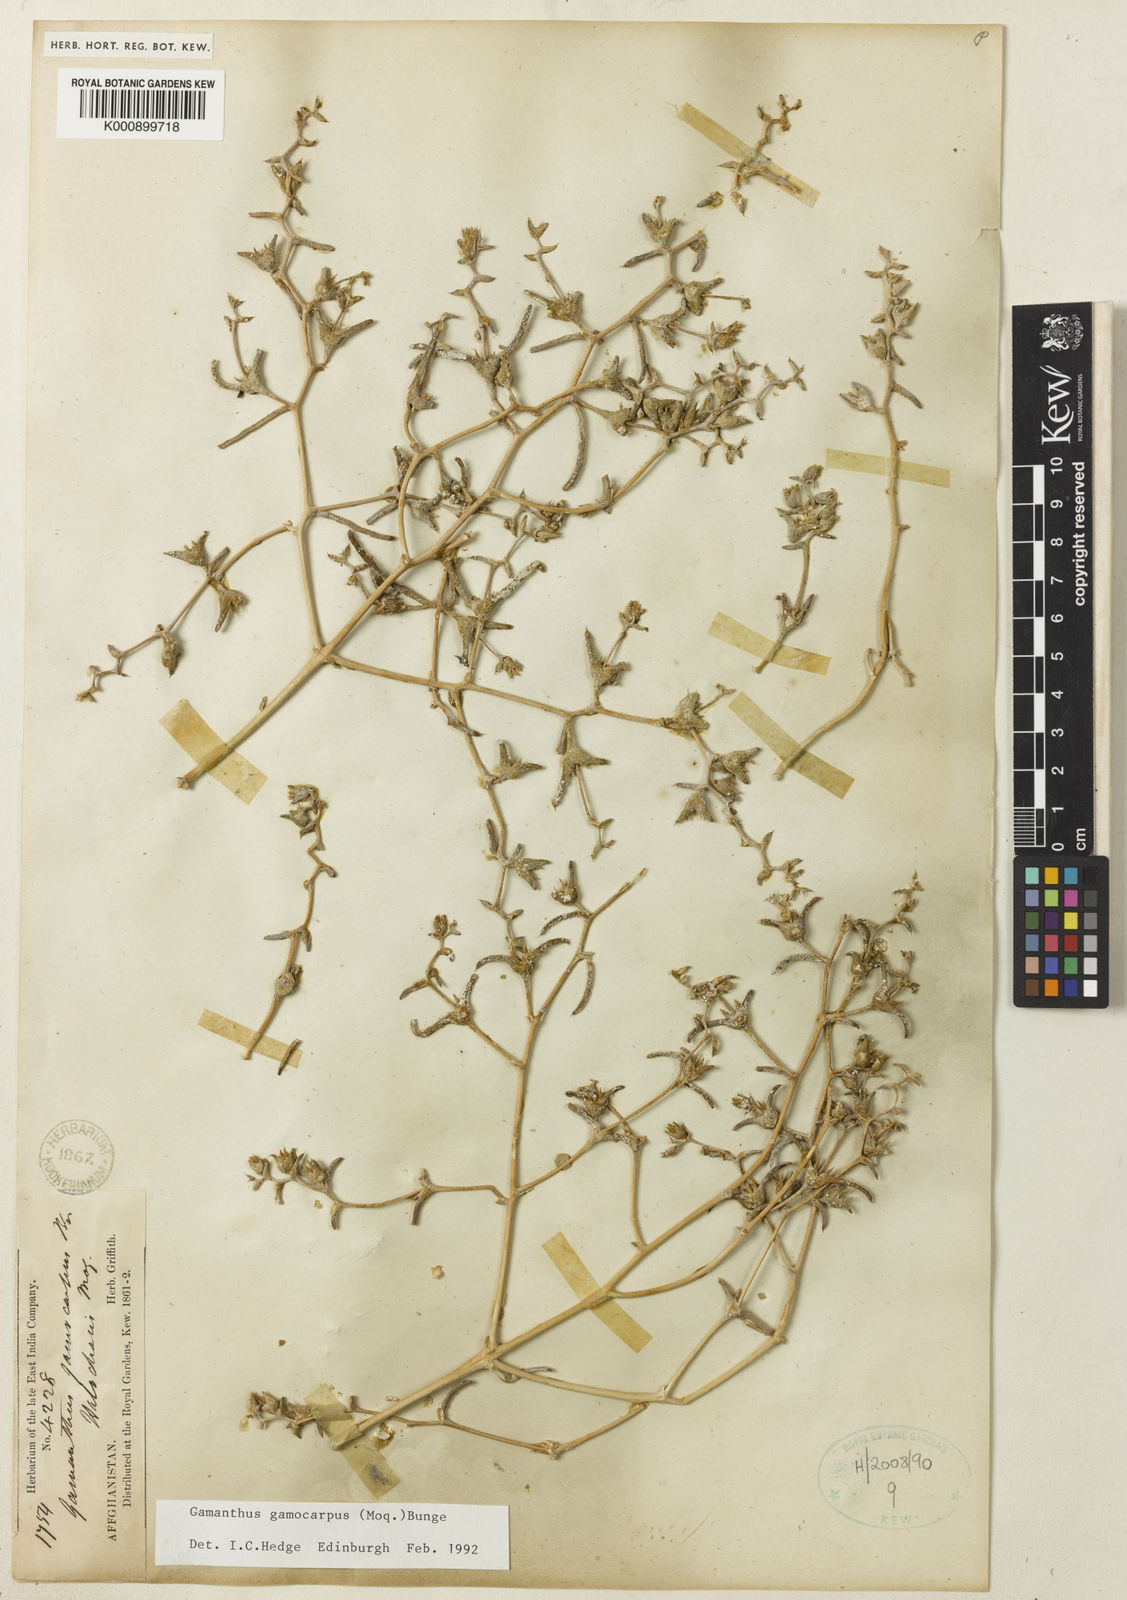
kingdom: Plantae
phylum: Tracheophyta
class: Magnoliopsida
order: Caryophyllales
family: Amaranthaceae
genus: Halimocnemis
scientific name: Halimocnemis
